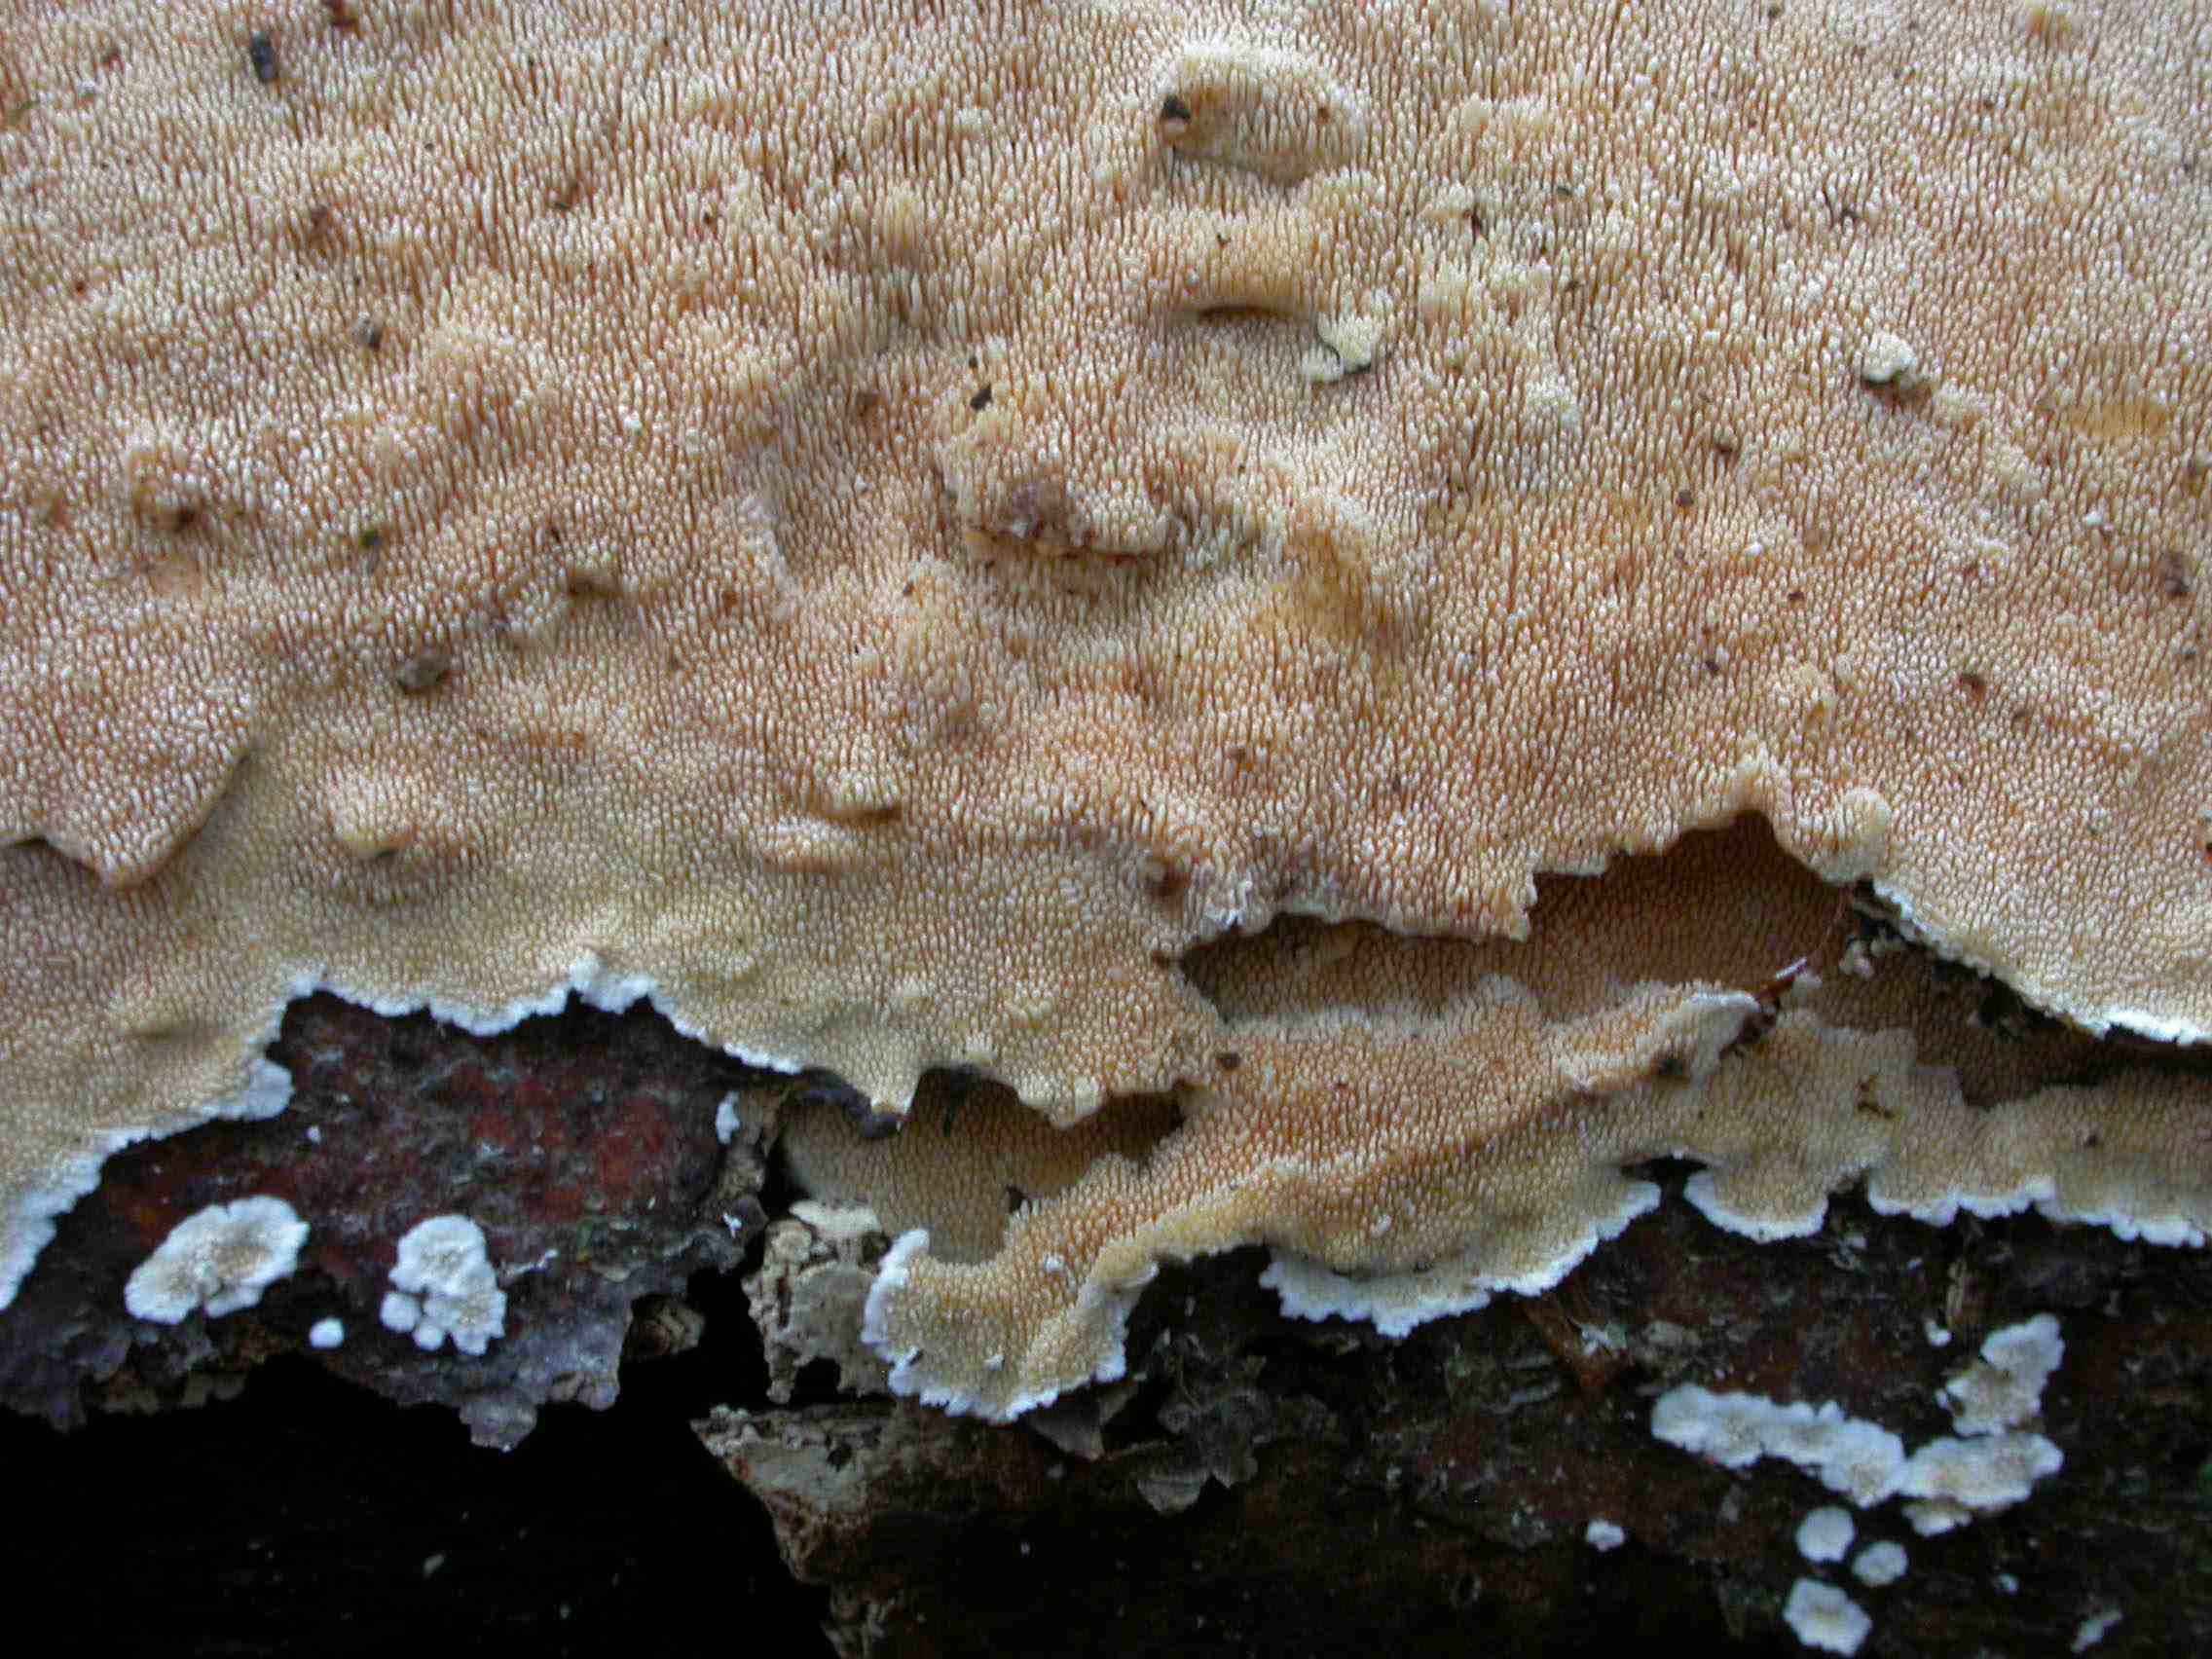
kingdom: Fungi
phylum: Basidiomycota
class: Agaricomycetes
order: Hymenochaetales
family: Schizoporaceae
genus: Schizopora
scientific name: Schizopora paradoxa
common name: hvid tandsvamp
